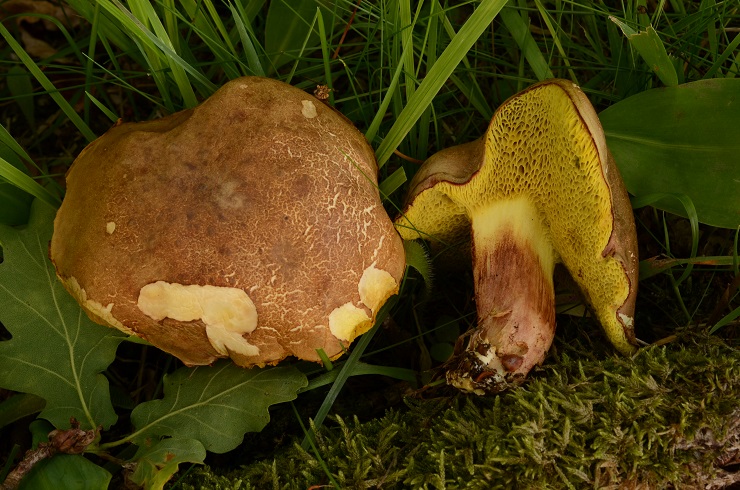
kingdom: Fungi
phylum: Basidiomycota
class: Agaricomycetes
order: Boletales
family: Boletaceae
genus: Xerocomellus
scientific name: Xerocomellus cisalpinus
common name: finsprukken rørhat
